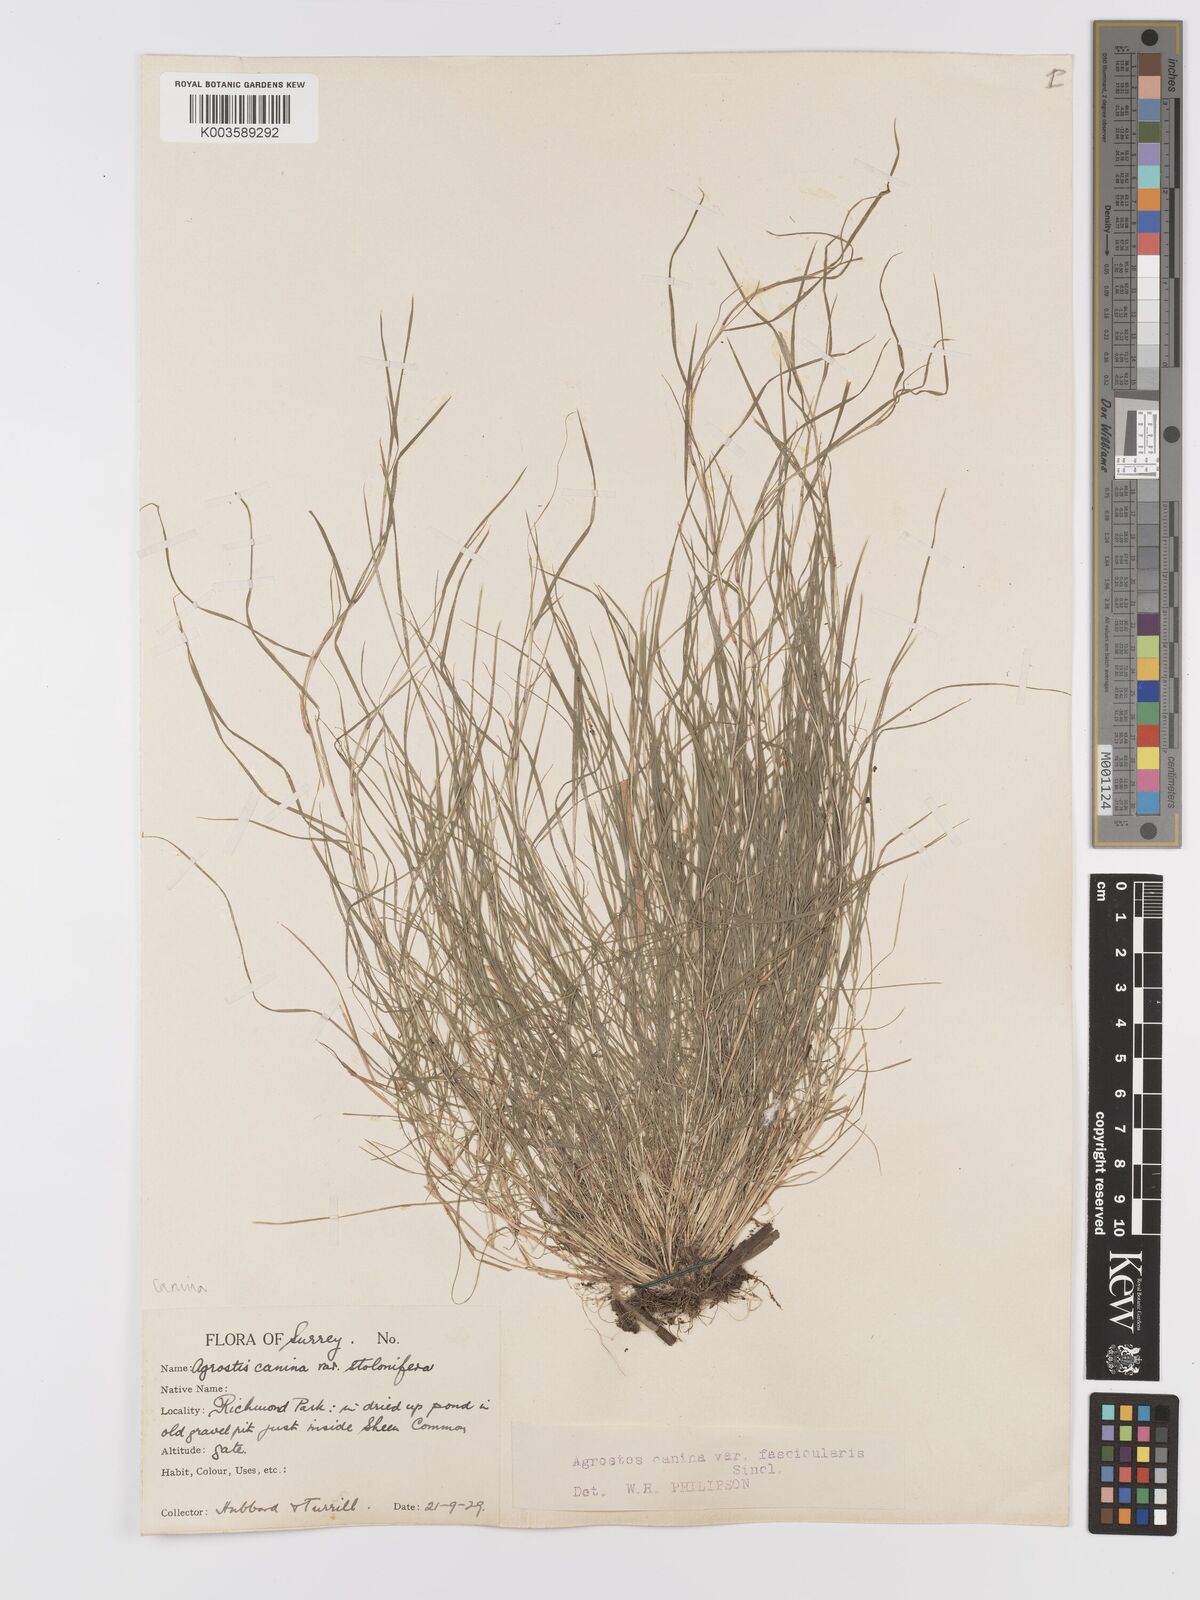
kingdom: Plantae
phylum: Tracheophyta
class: Liliopsida
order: Poales
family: Poaceae
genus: Agrostis
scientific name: Agrostis canina
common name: Velvet bent
